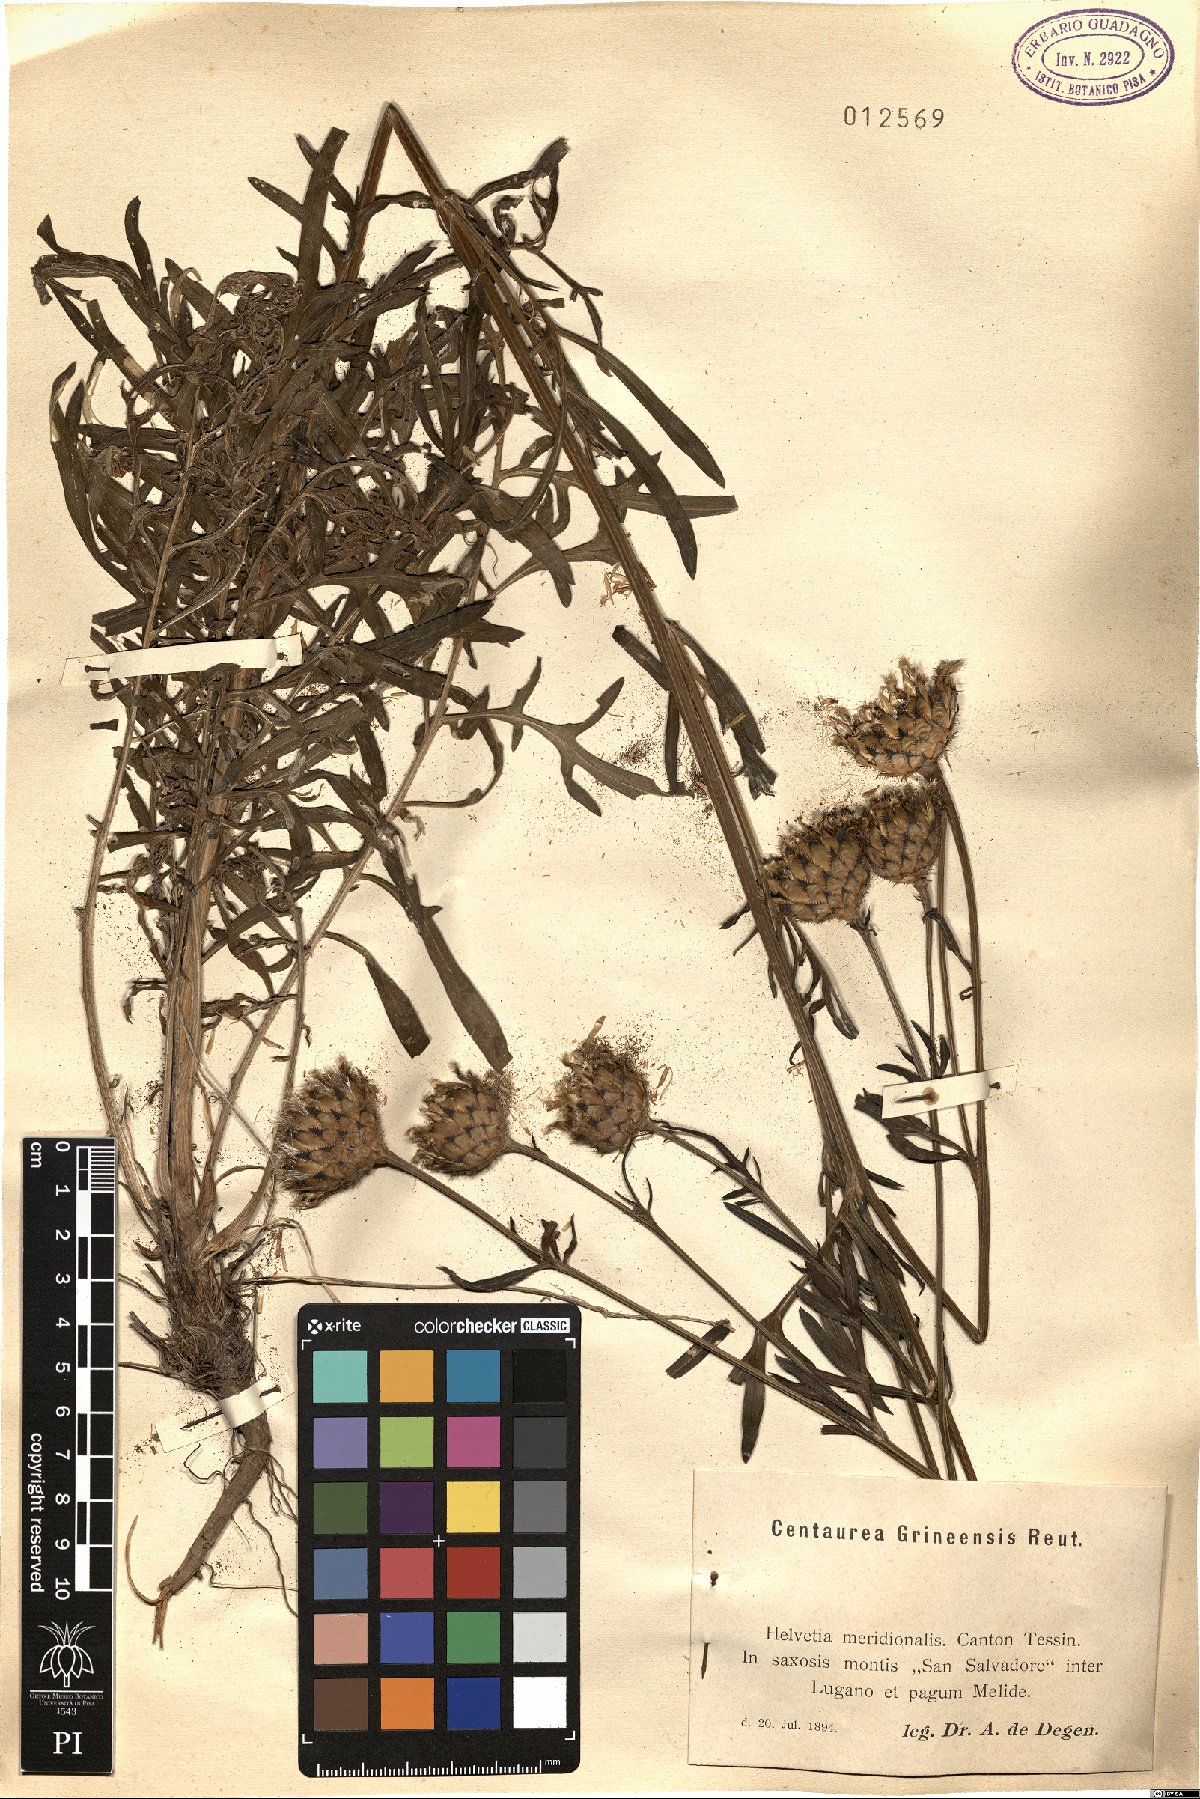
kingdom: Plantae
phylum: Tracheophyta
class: Magnoliopsida
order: Asterales
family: Asteraceae
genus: Centaurea
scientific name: Centaurea scabiosa
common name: Greater knapweed
